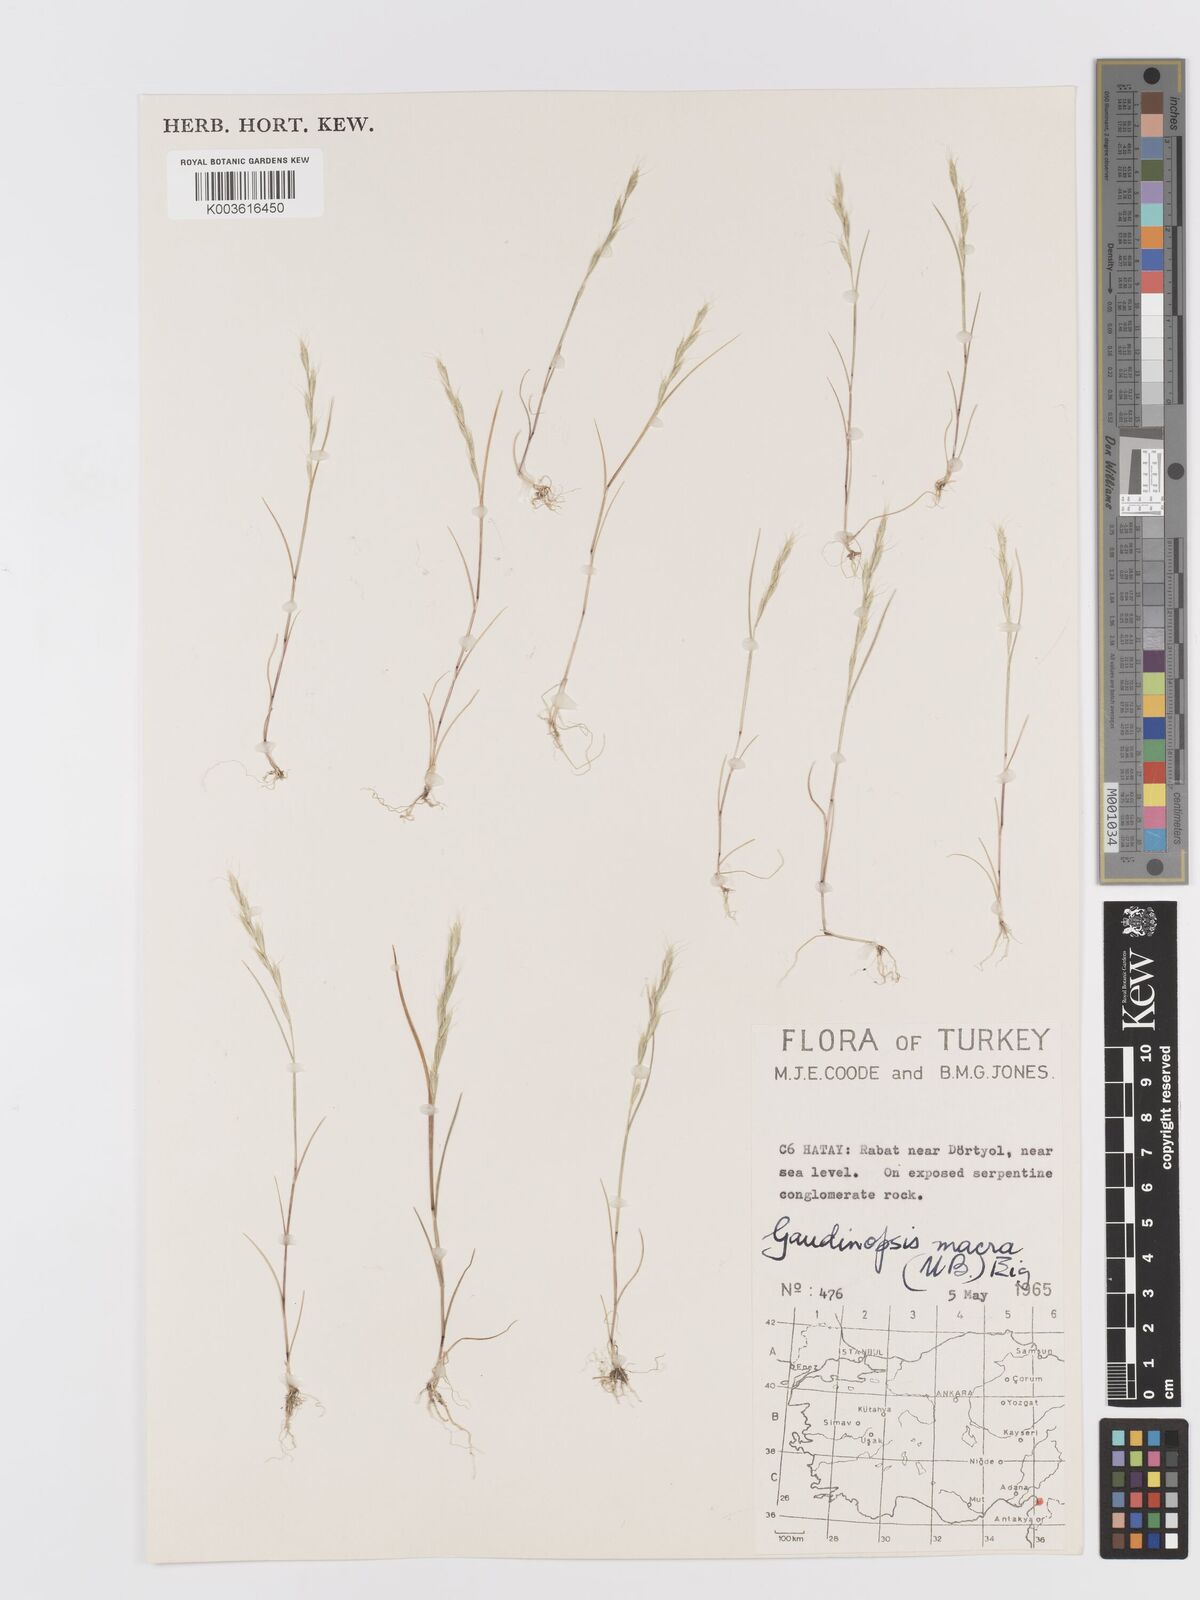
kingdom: Plantae
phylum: Tracheophyta
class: Liliopsida
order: Poales
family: Poaceae
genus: Ventenata
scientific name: Ventenata macra
